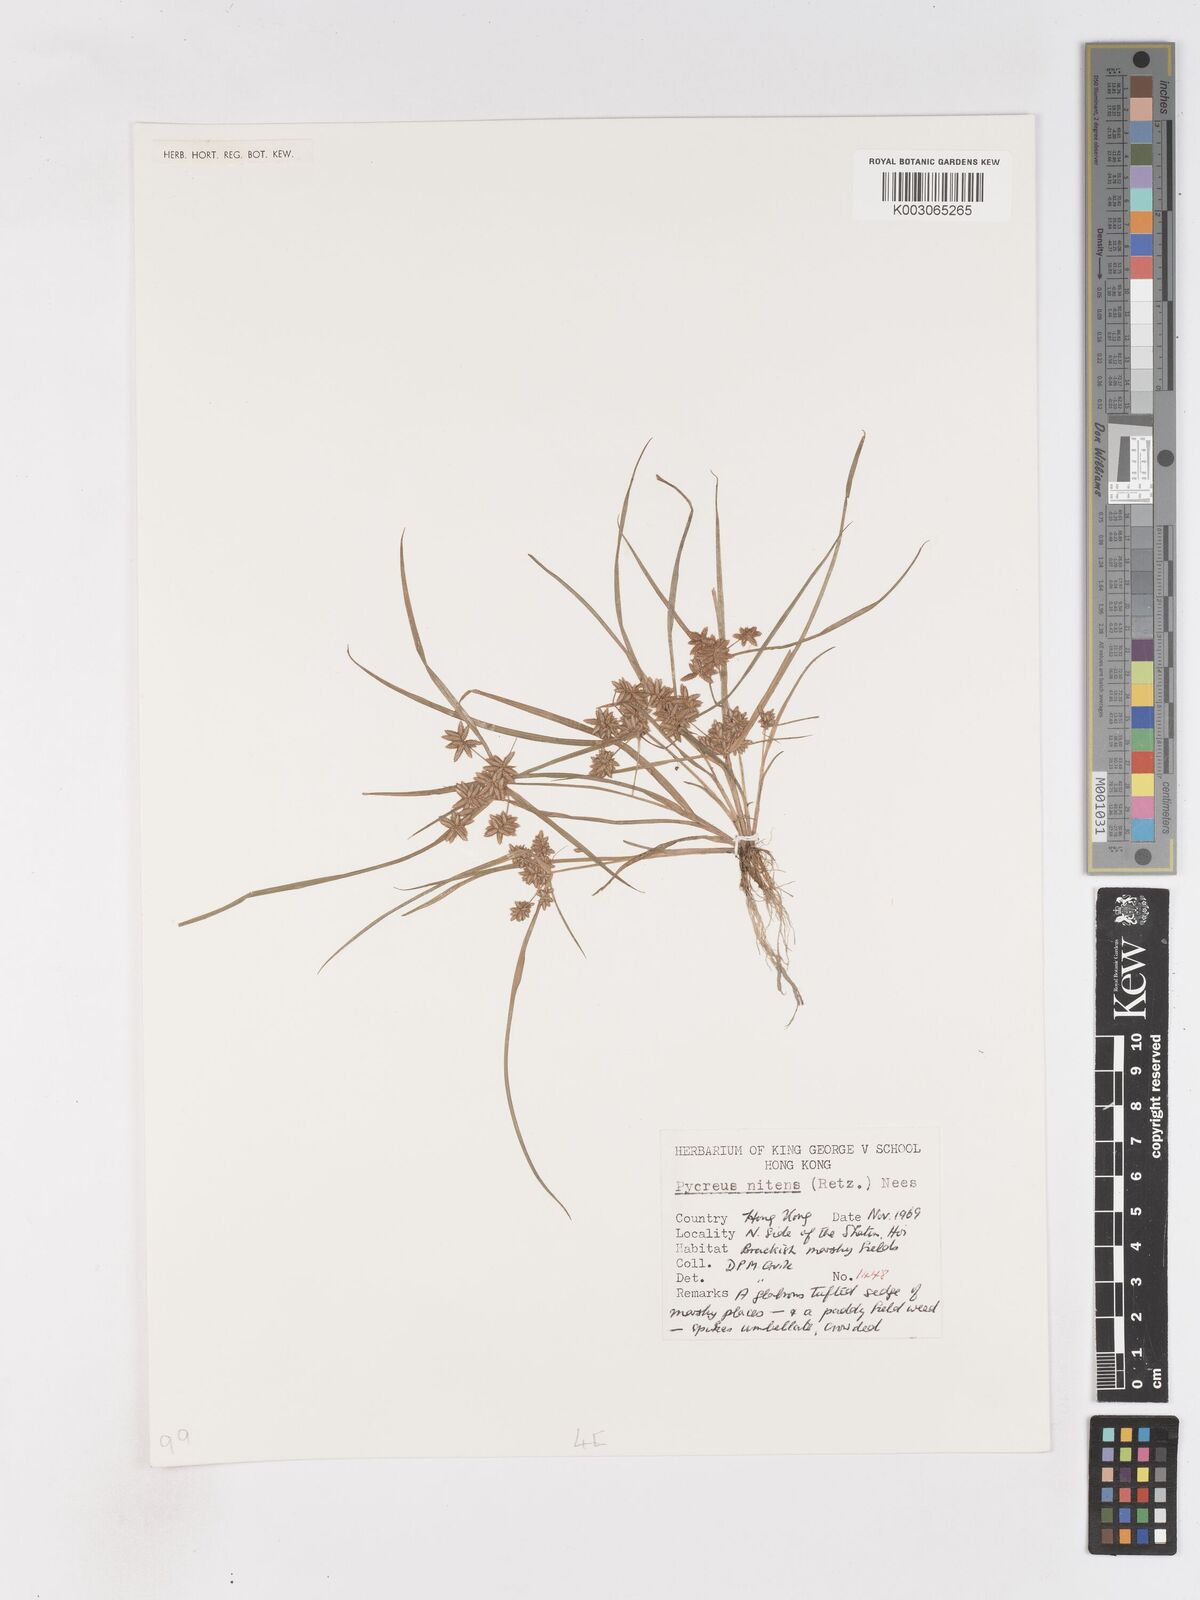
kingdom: Plantae
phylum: Tracheophyta
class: Liliopsida
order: Poales
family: Cyperaceae
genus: Cyperus
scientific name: Cyperus pumilus
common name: Low flatsedge
